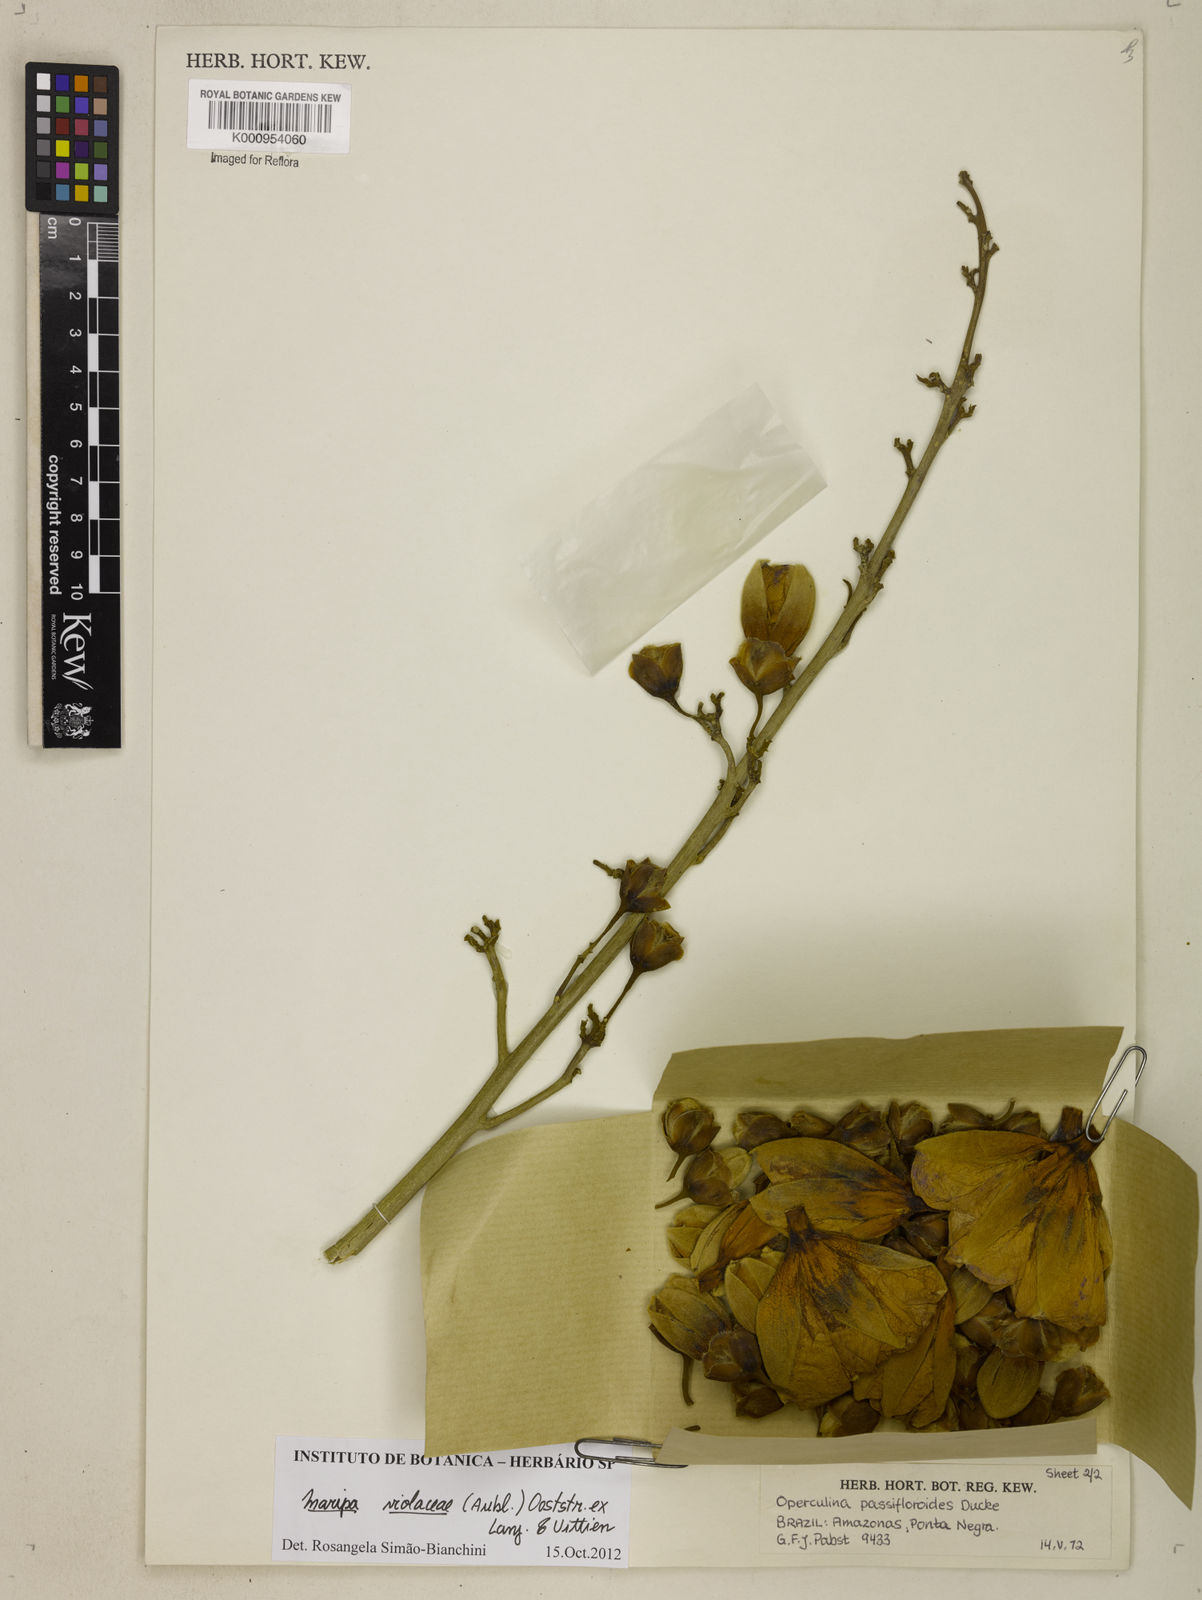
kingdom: Plantae
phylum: Tracheophyta
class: Magnoliopsida
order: Solanales
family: Convolvulaceae
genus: Maripa
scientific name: Maripa
